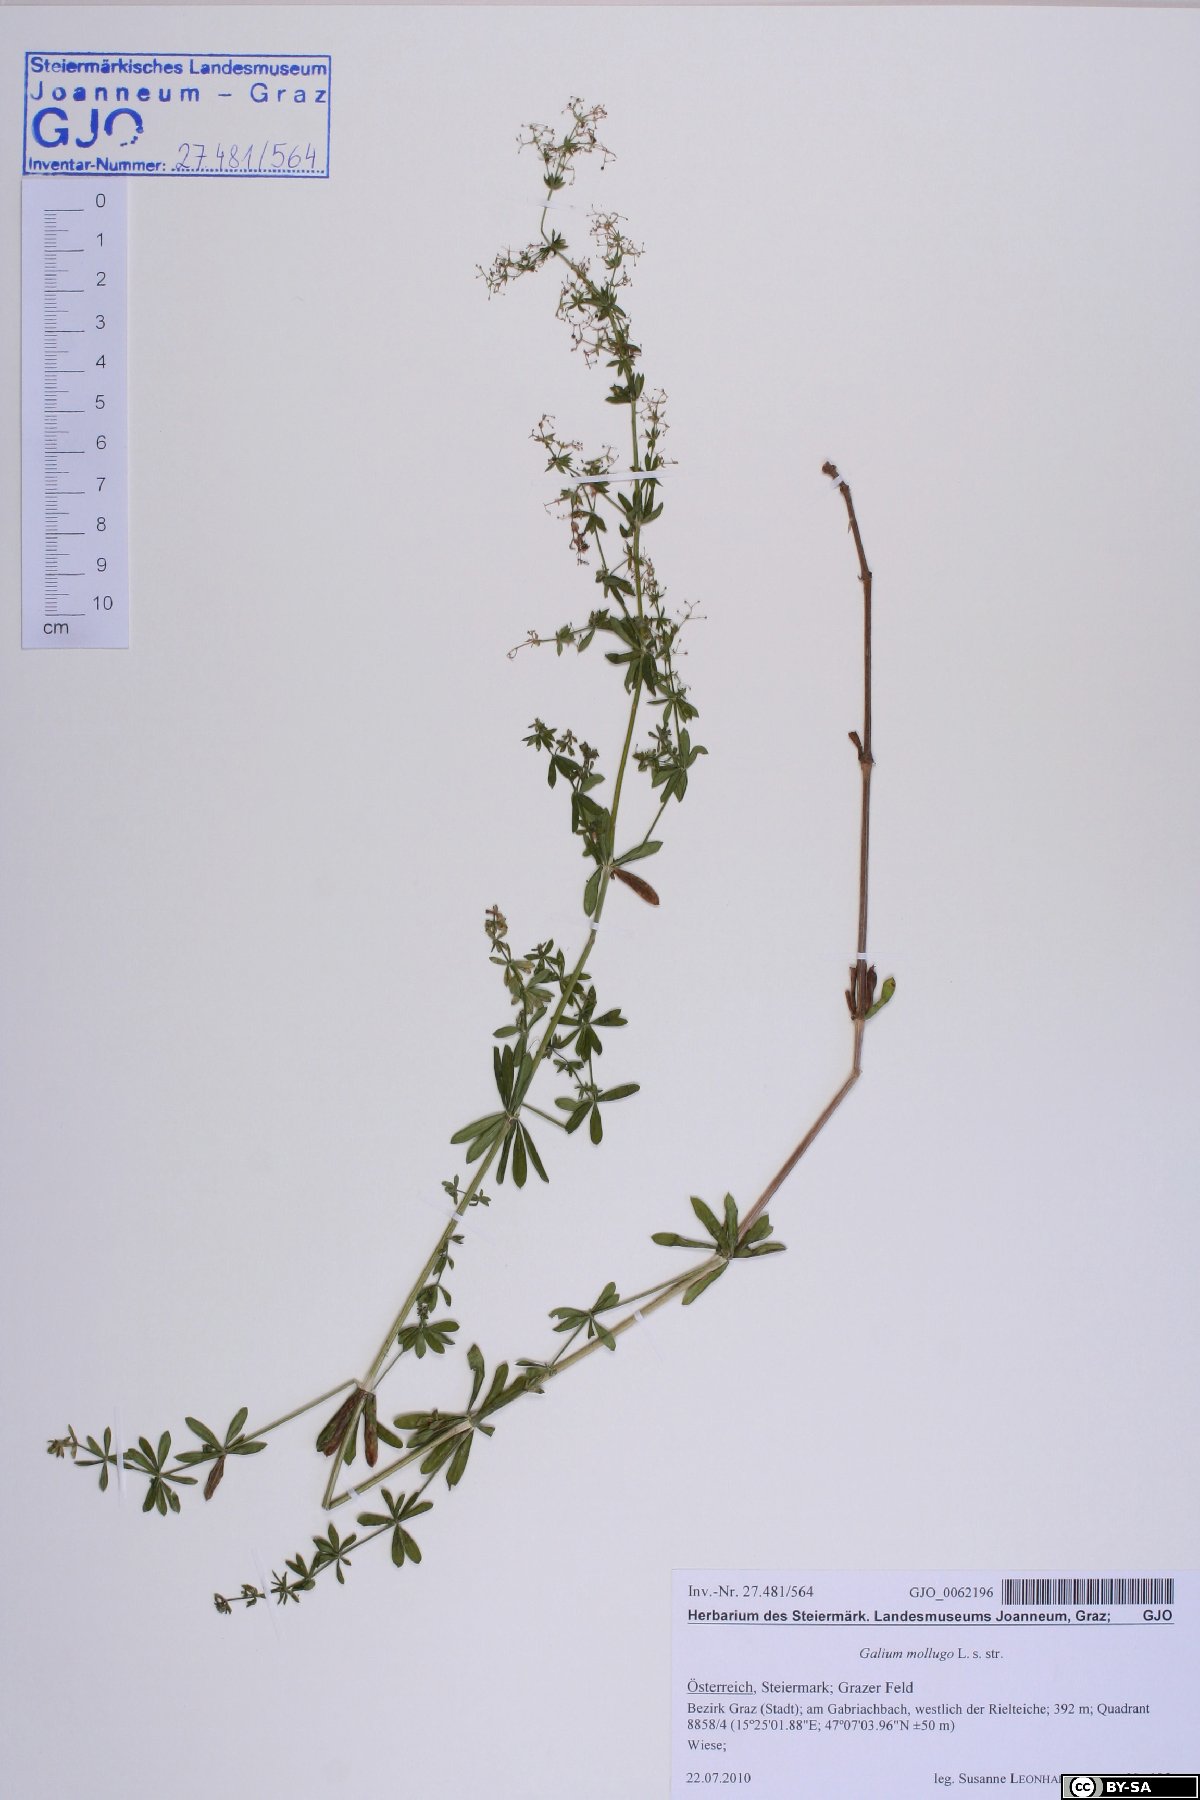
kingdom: Plantae
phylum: Tracheophyta
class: Magnoliopsida
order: Gentianales
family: Rubiaceae
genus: Galium
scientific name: Galium mollugo
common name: Hedge bedstraw
